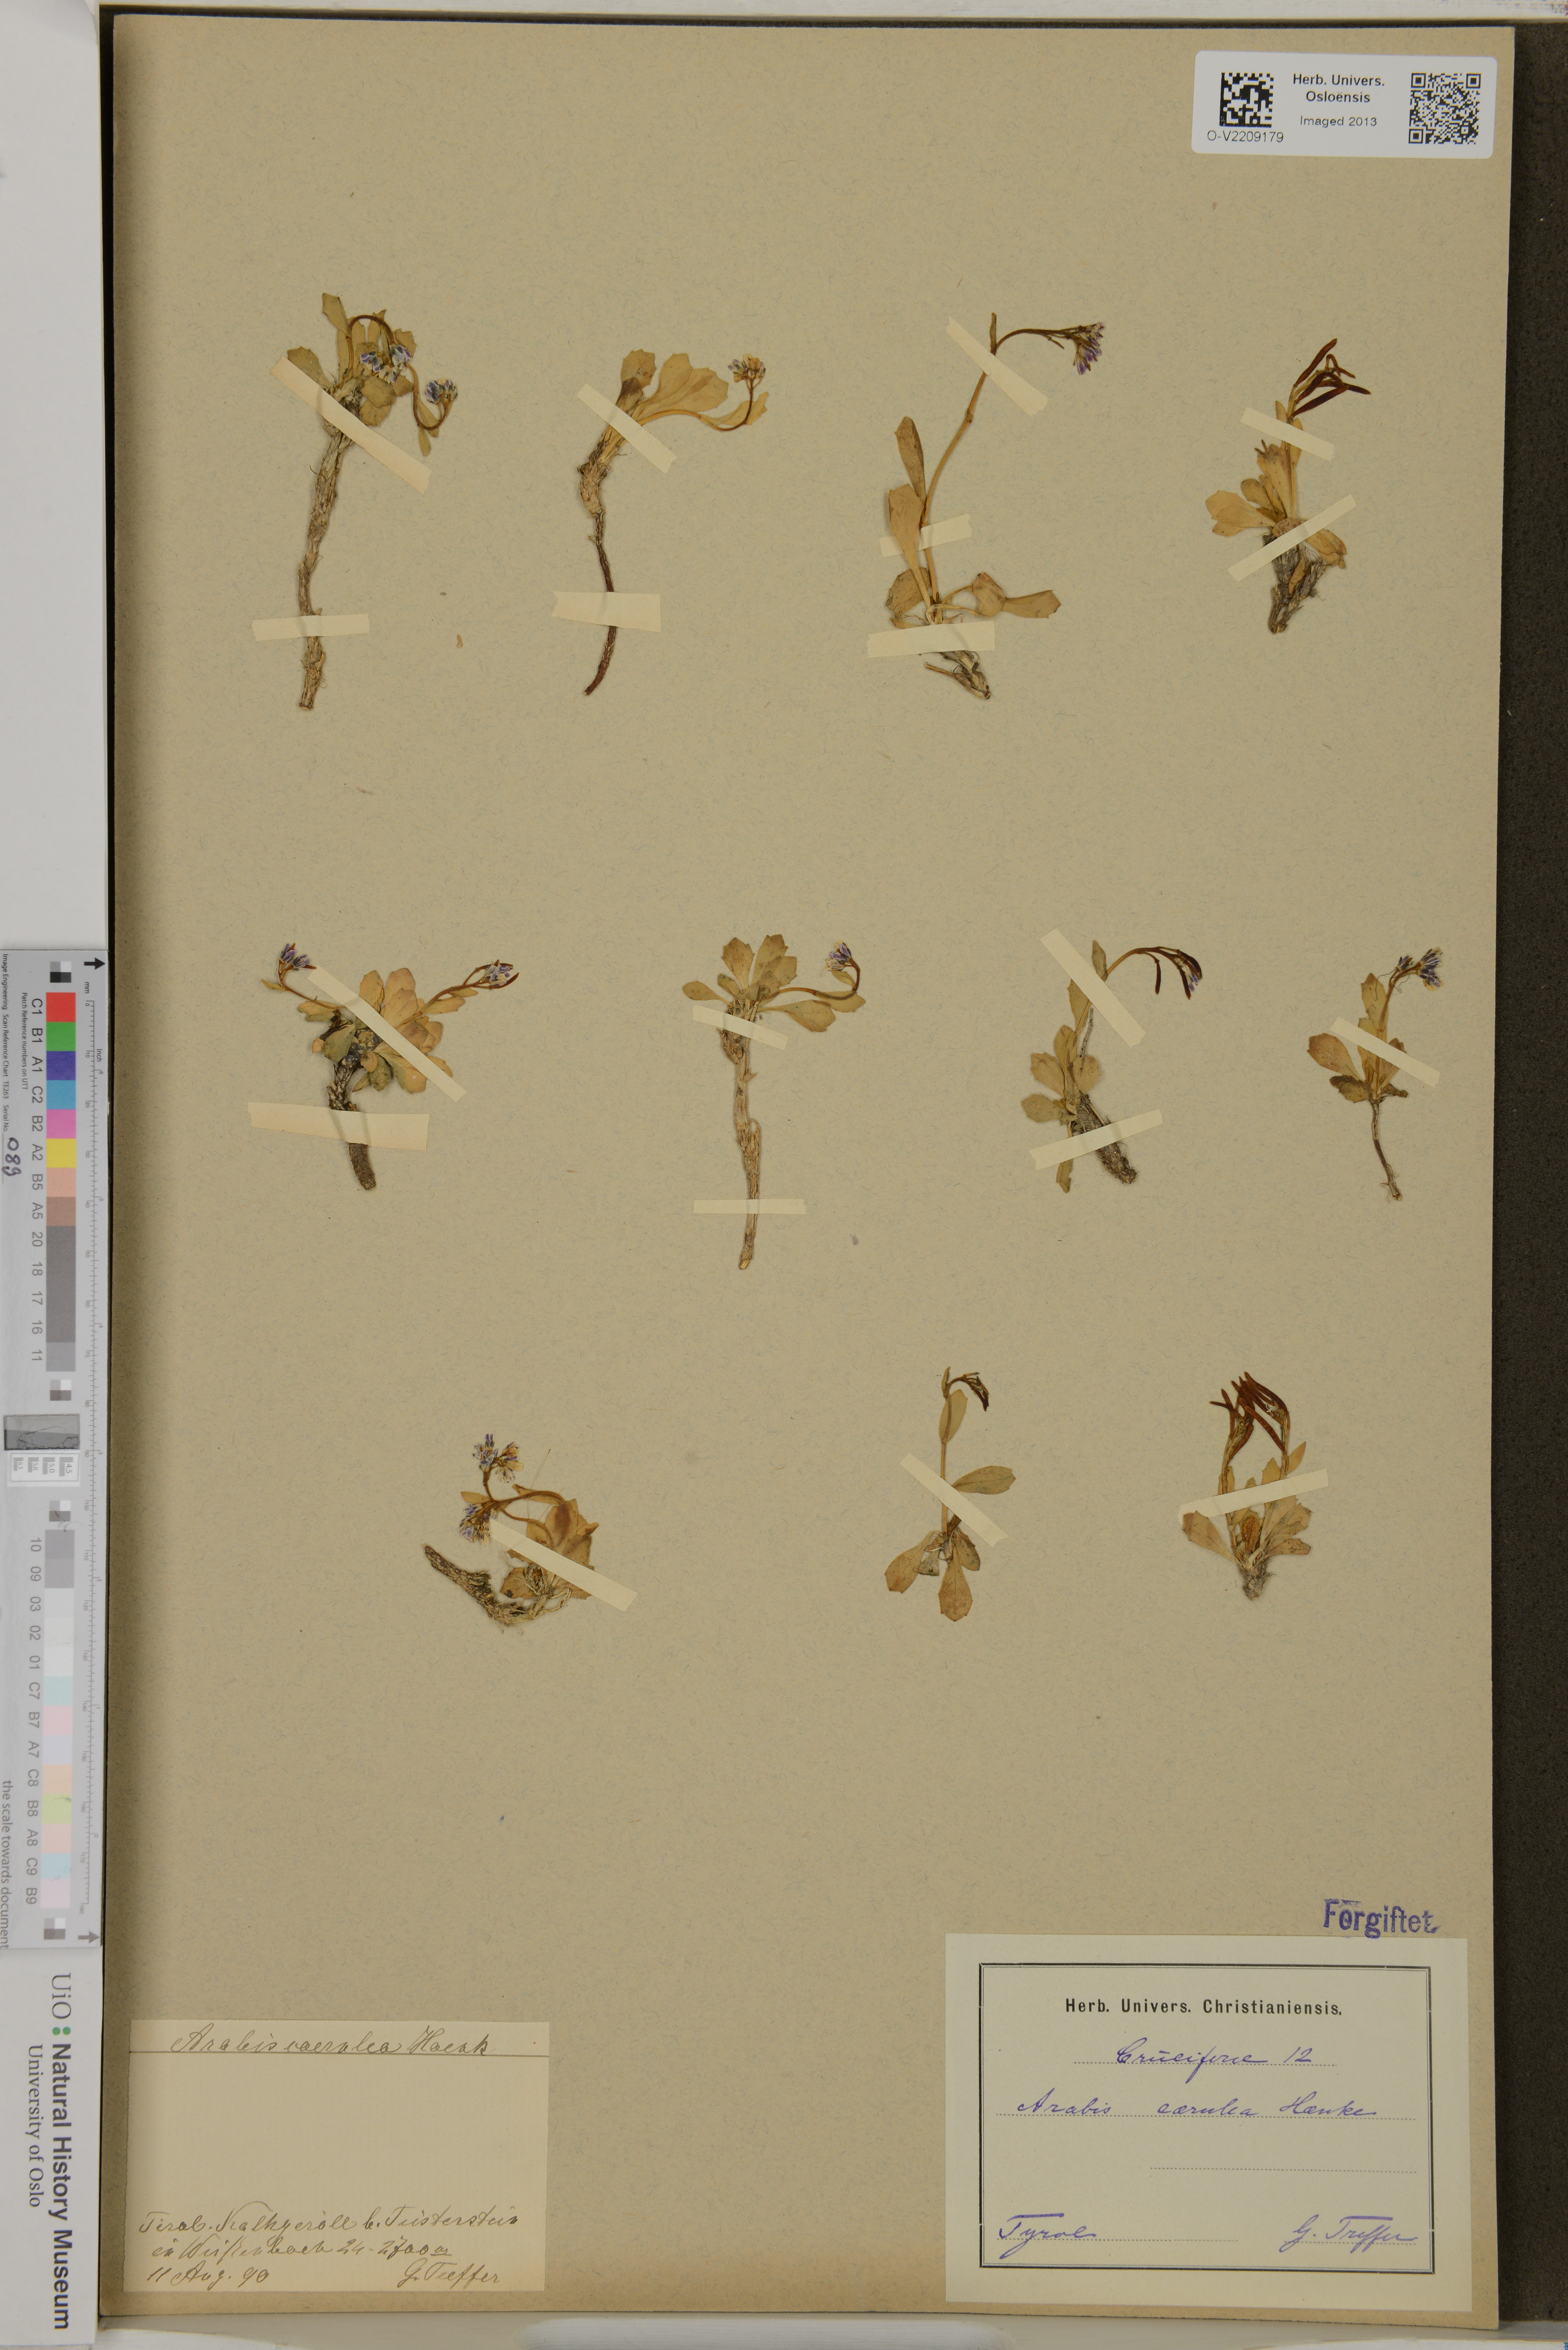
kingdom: Plantae
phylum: Tracheophyta
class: Magnoliopsida
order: Brassicales
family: Brassicaceae
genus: Arabis
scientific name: Arabis caerulea
